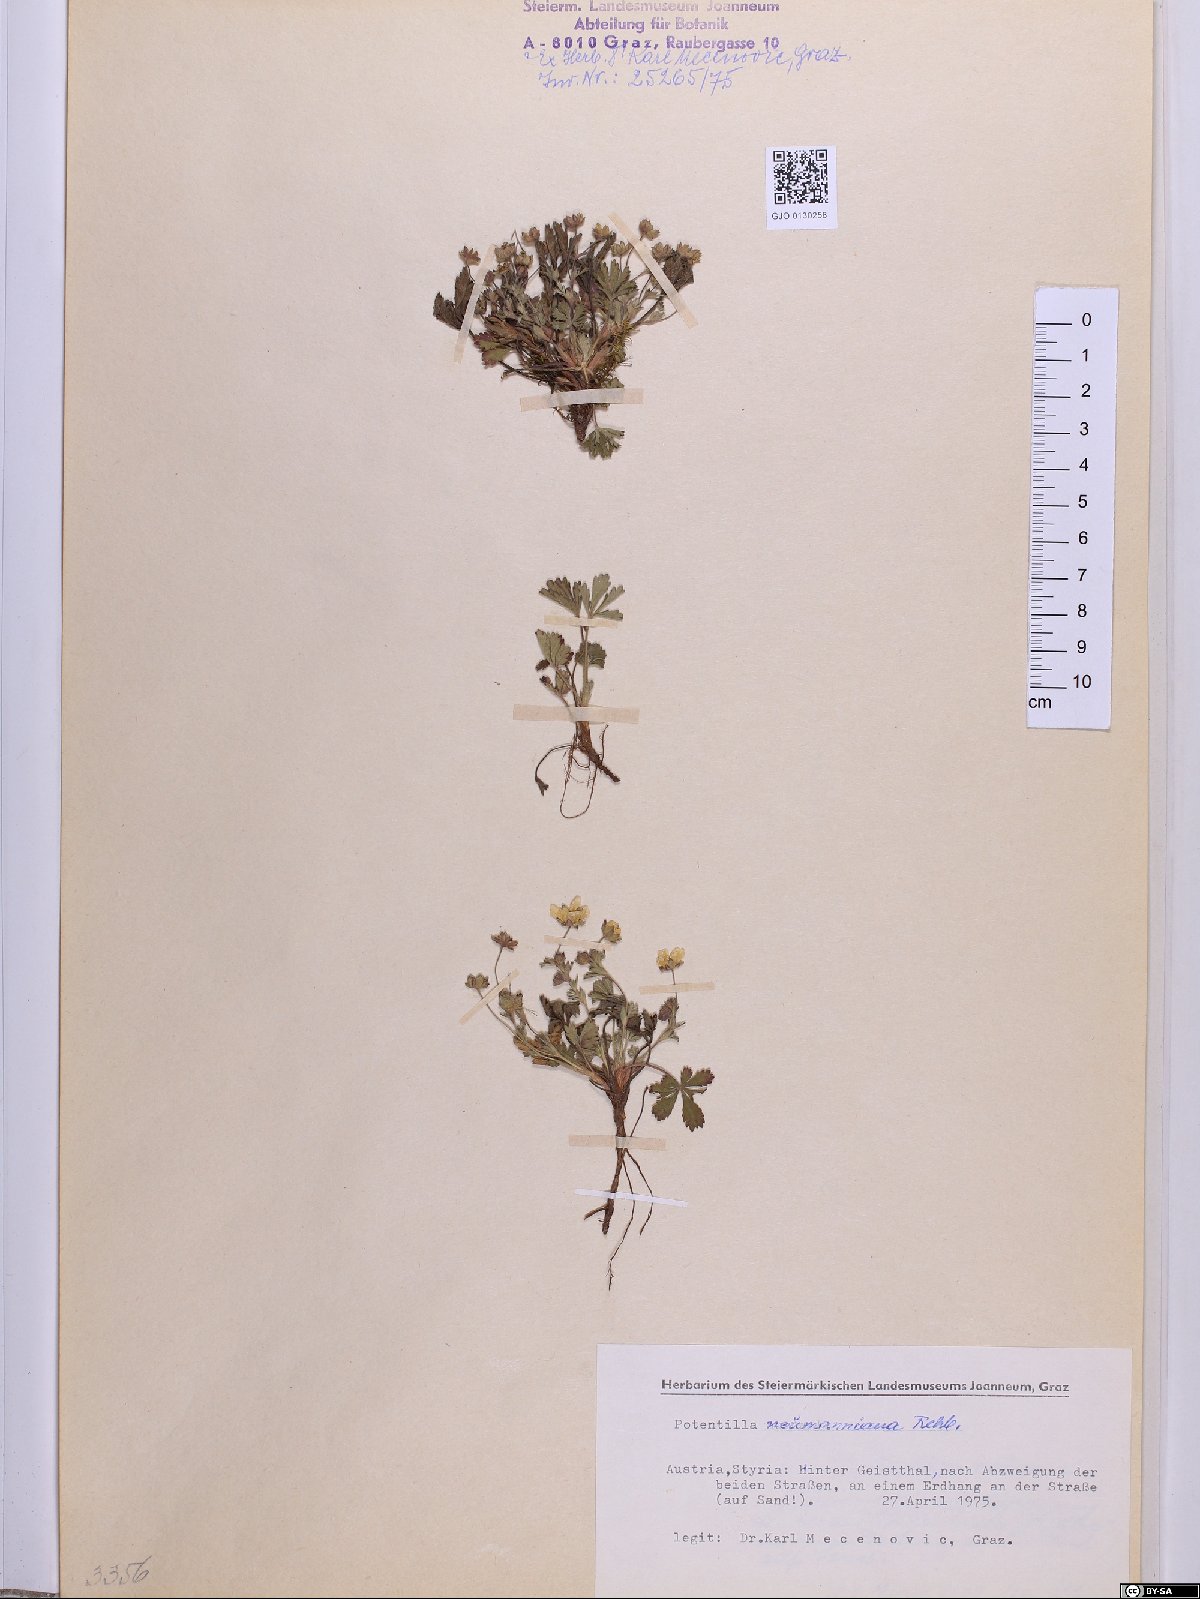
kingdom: Plantae
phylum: Tracheophyta
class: Magnoliopsida
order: Rosales
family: Rosaceae
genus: Potentilla
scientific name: Potentilla verna
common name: Spring cinquefoil
